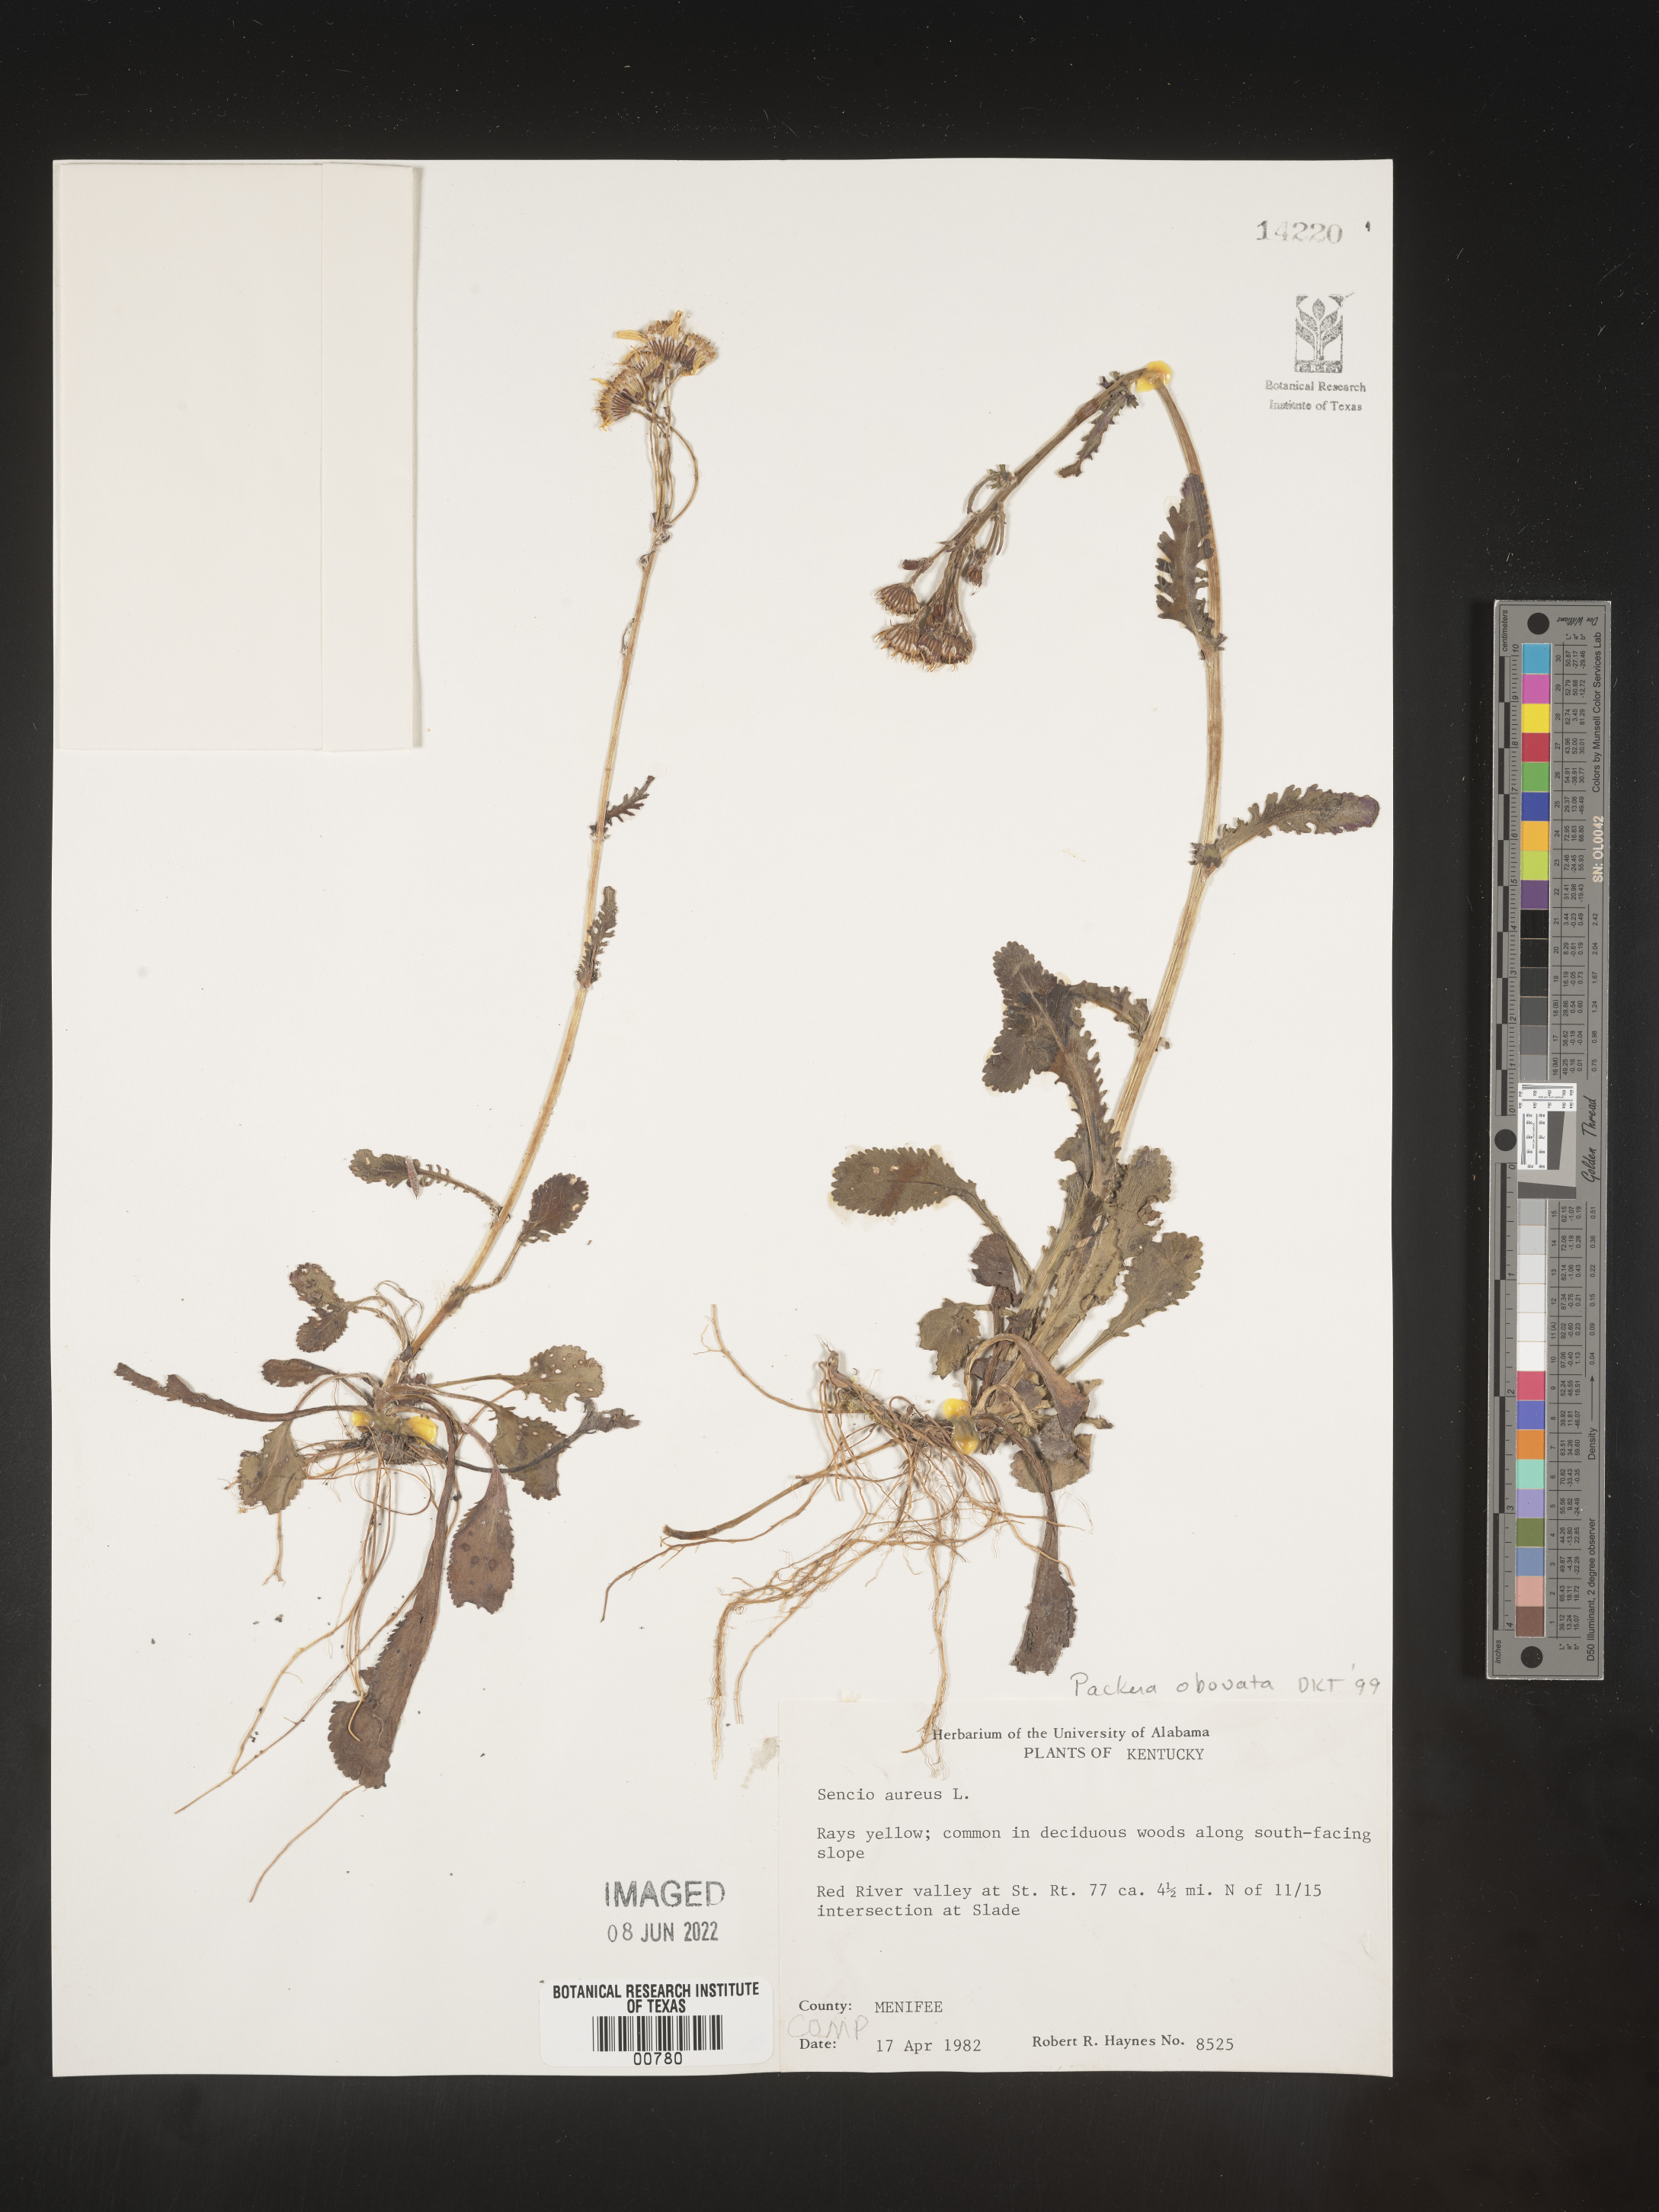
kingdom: Plantae
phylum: Tracheophyta
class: Magnoliopsida
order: Asterales
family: Asteraceae
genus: Packera
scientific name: Packera obovata
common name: Round-leaf ragwort
